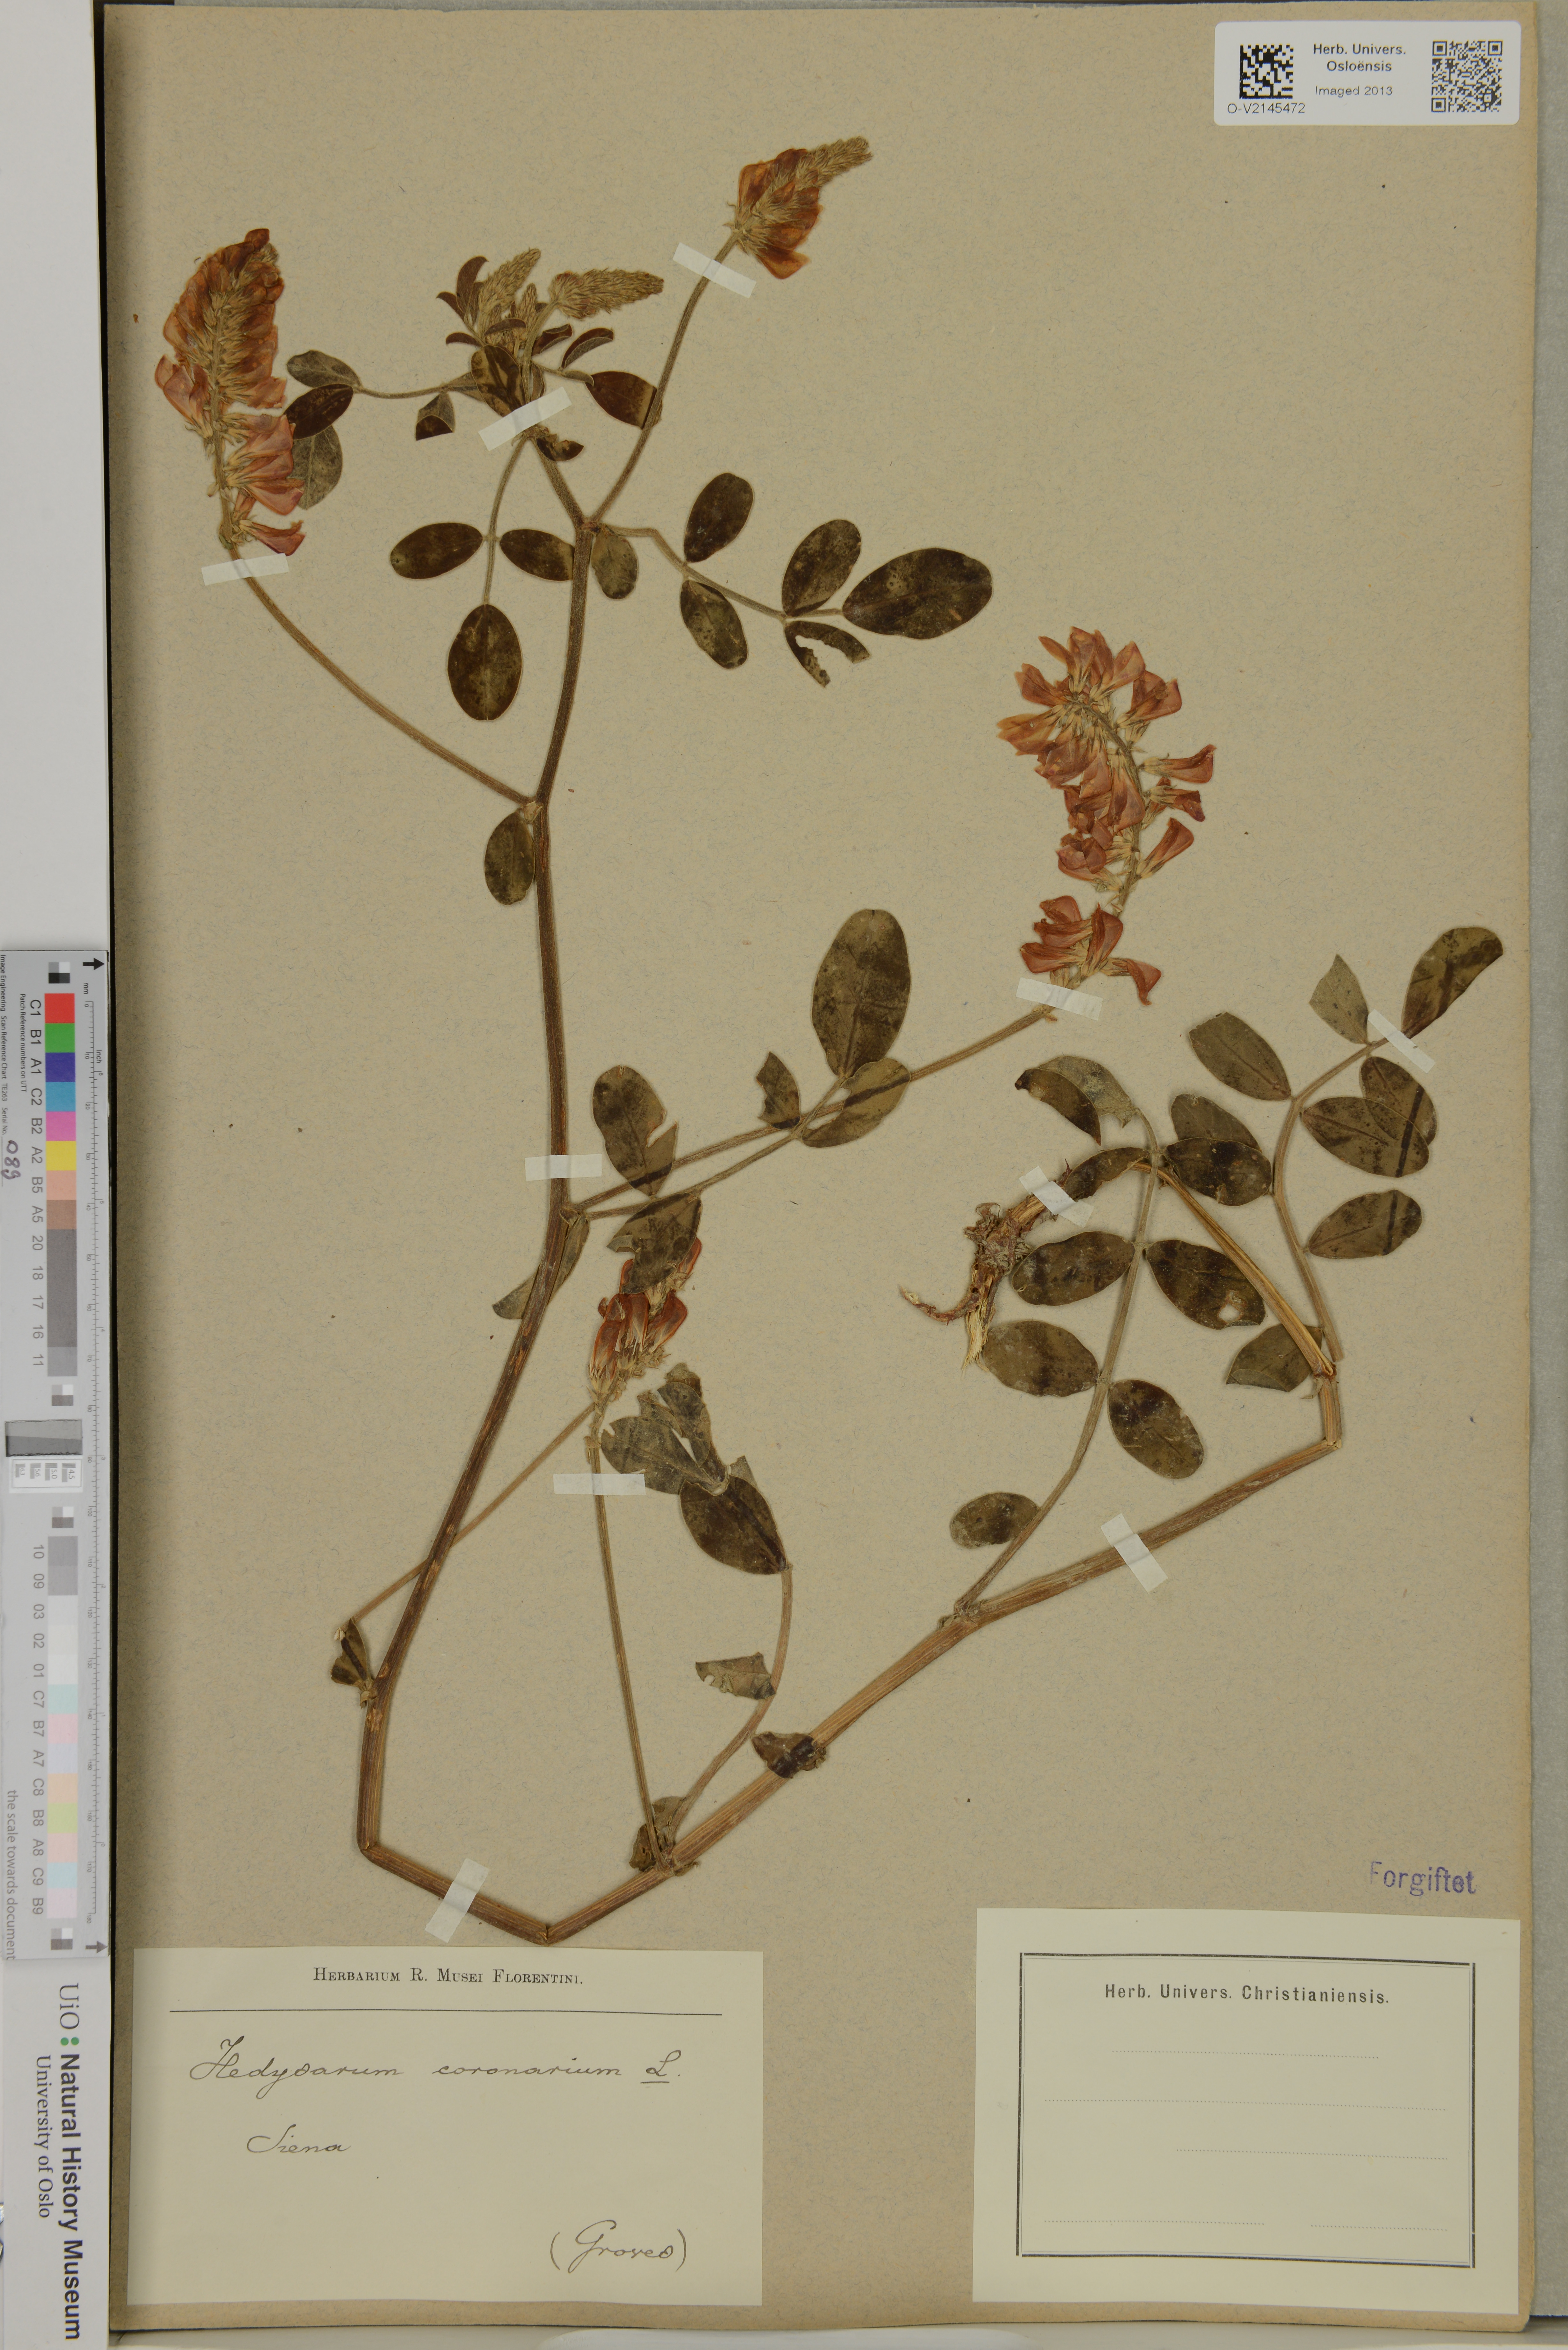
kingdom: Plantae
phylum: Tracheophyta
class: Magnoliopsida
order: Fabales
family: Fabaceae
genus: Sulla
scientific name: Sulla coronaria
